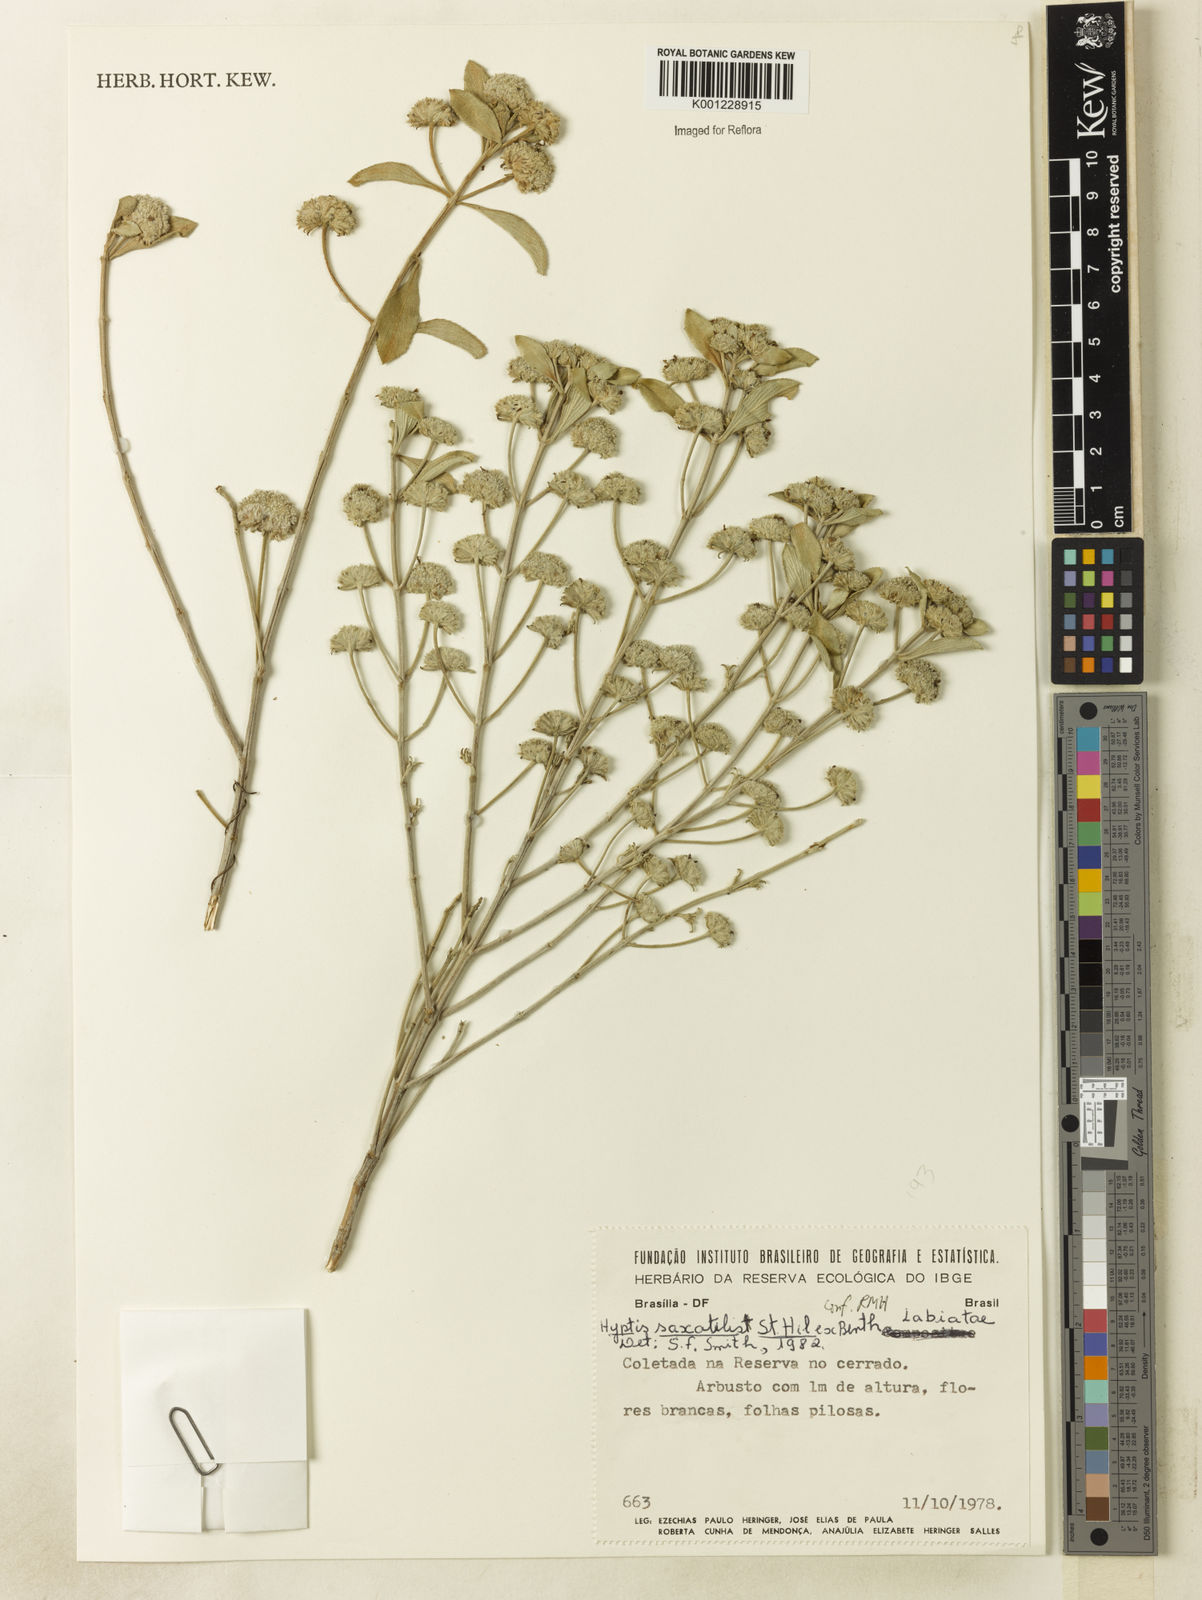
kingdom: Plantae
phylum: Tracheophyta
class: Magnoliopsida
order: Lamiales
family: Lamiaceae
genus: Hyptis
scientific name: Hyptis saxatilis
